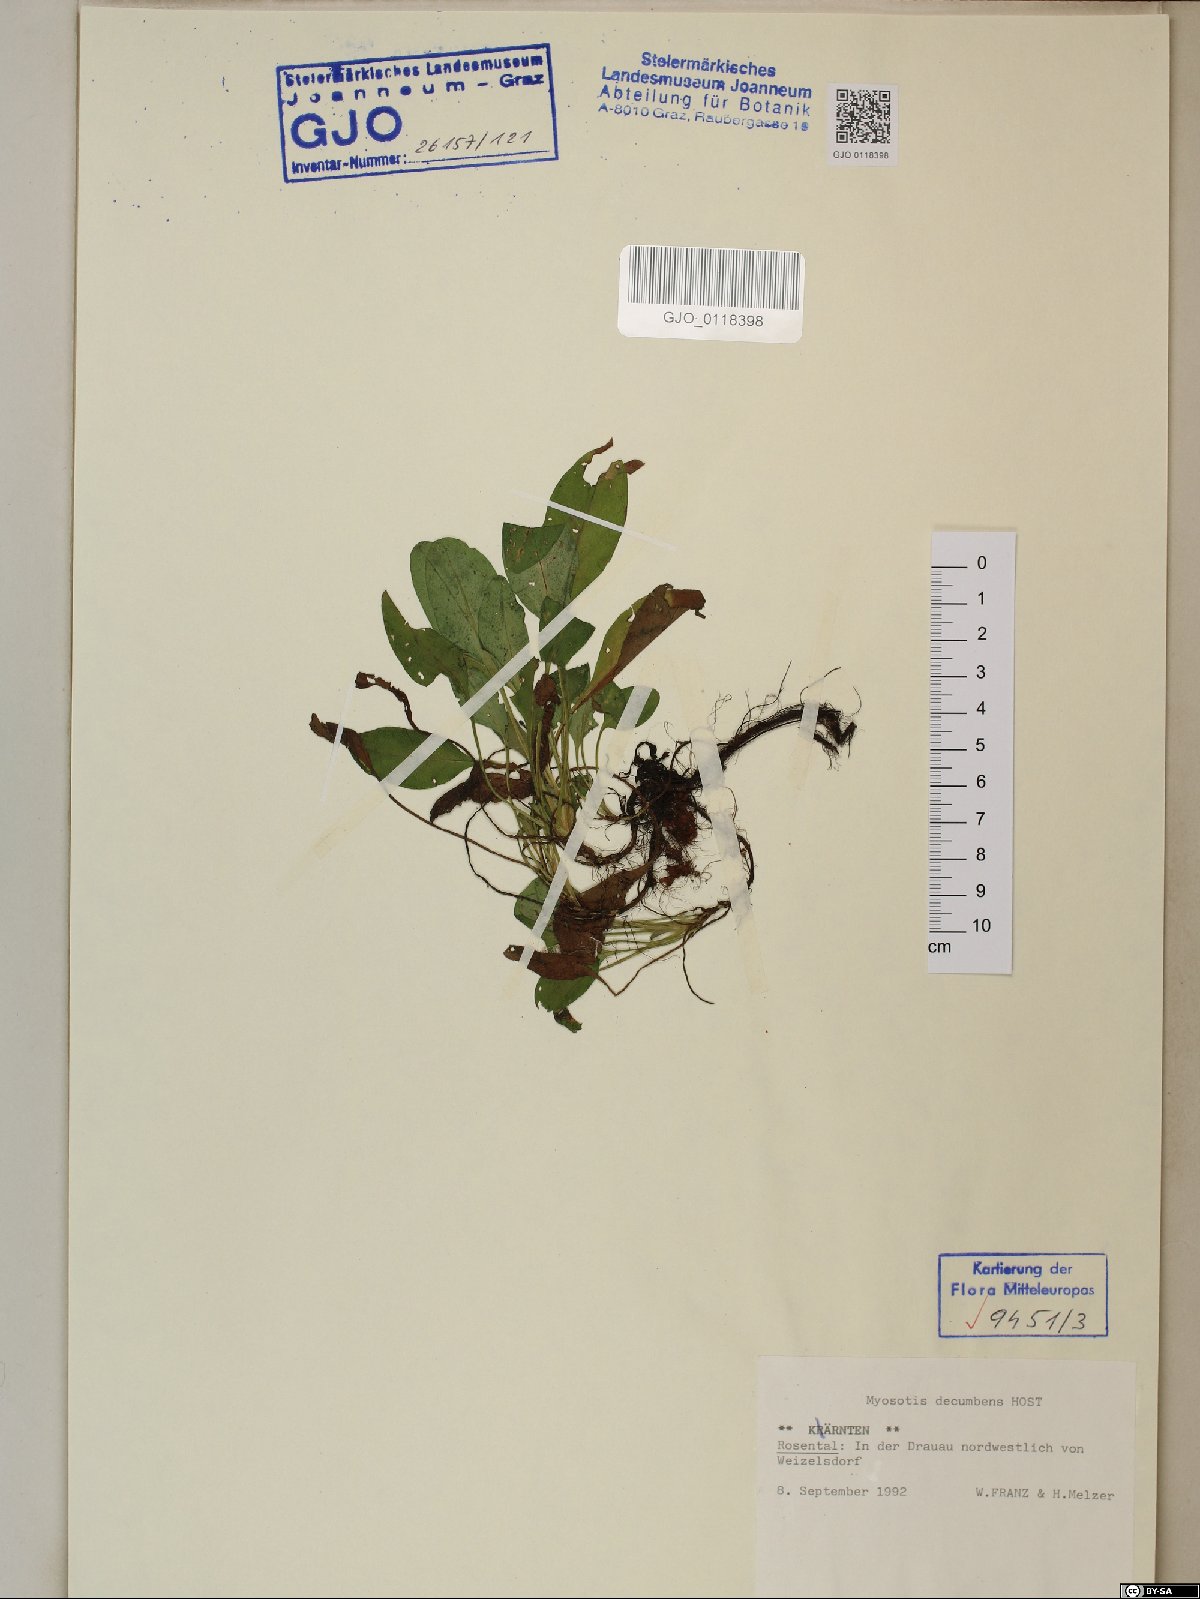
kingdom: Plantae
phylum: Tracheophyta
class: Magnoliopsida
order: Boraginales
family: Boraginaceae
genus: Myosotis
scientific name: Myosotis decumbens
